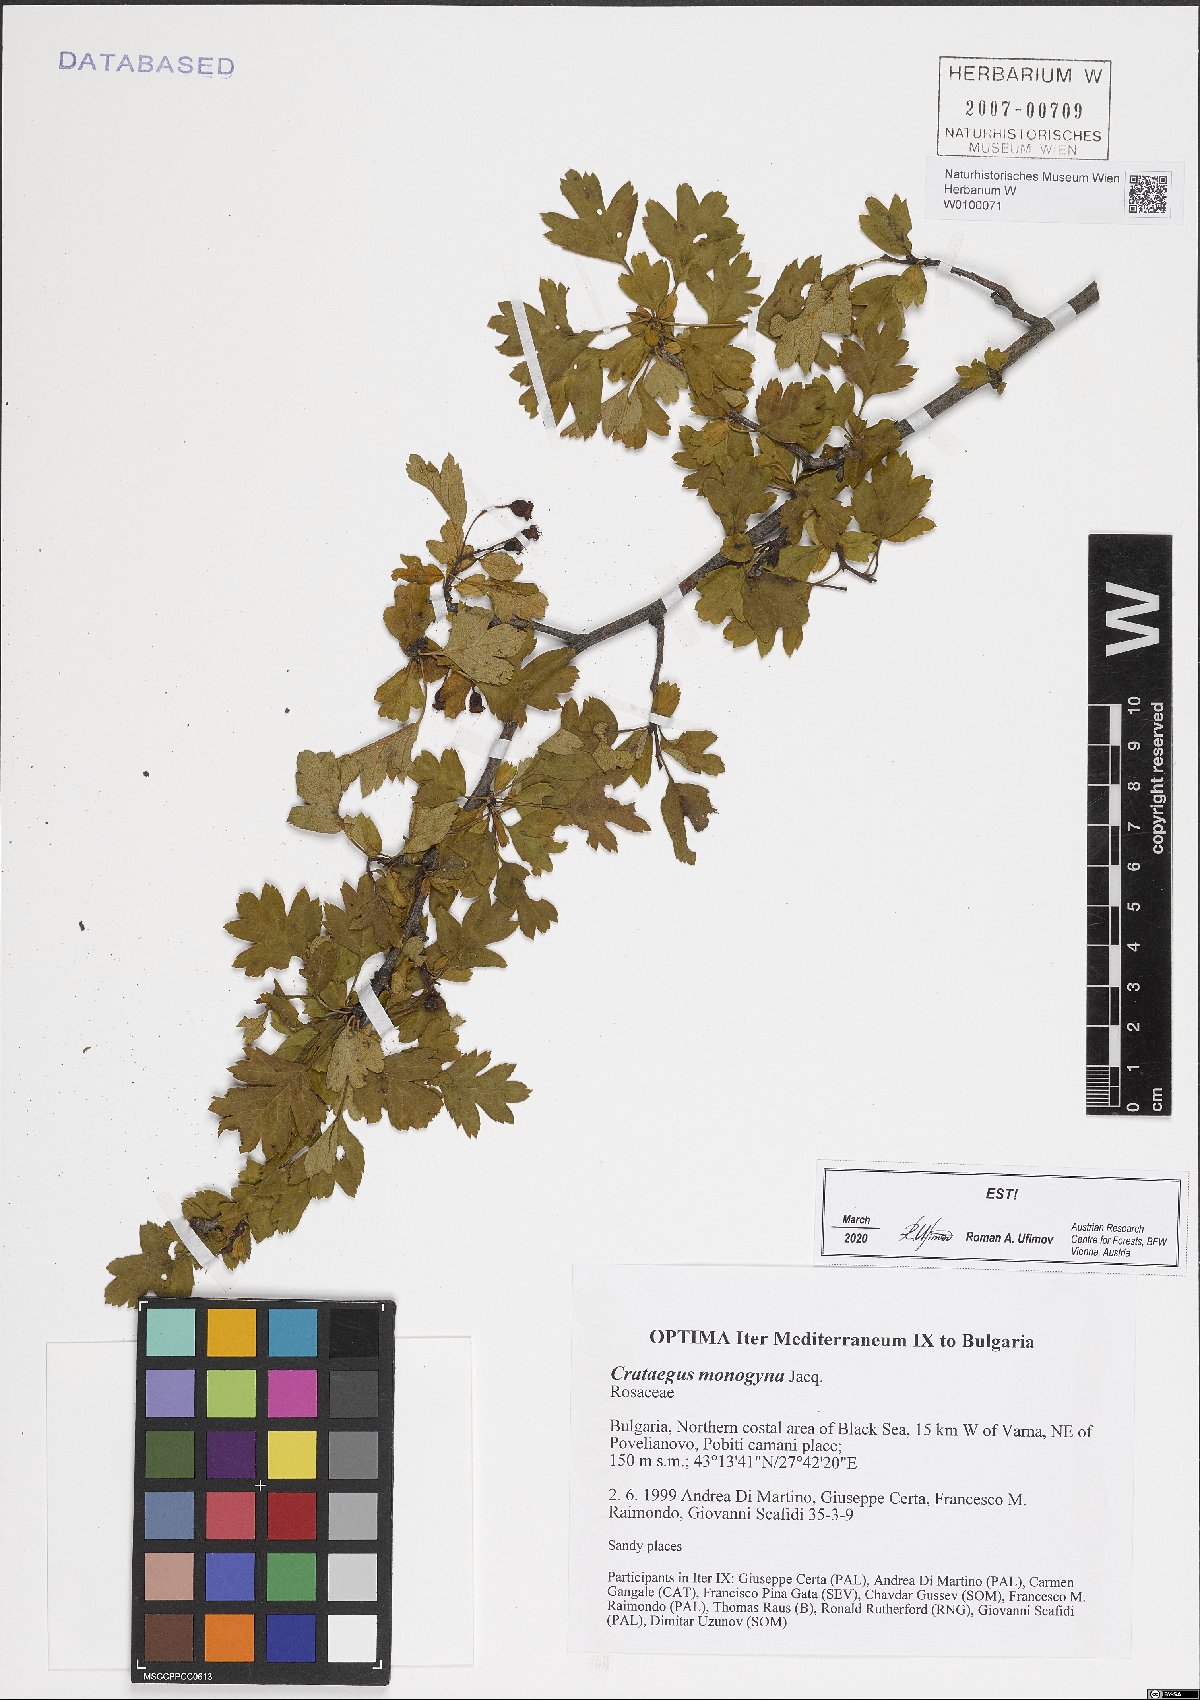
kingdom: Plantae
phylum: Tracheophyta
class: Magnoliopsida
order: Rosales
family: Rosaceae
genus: Crataegus
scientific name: Crataegus monogyna
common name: Hawthorn
